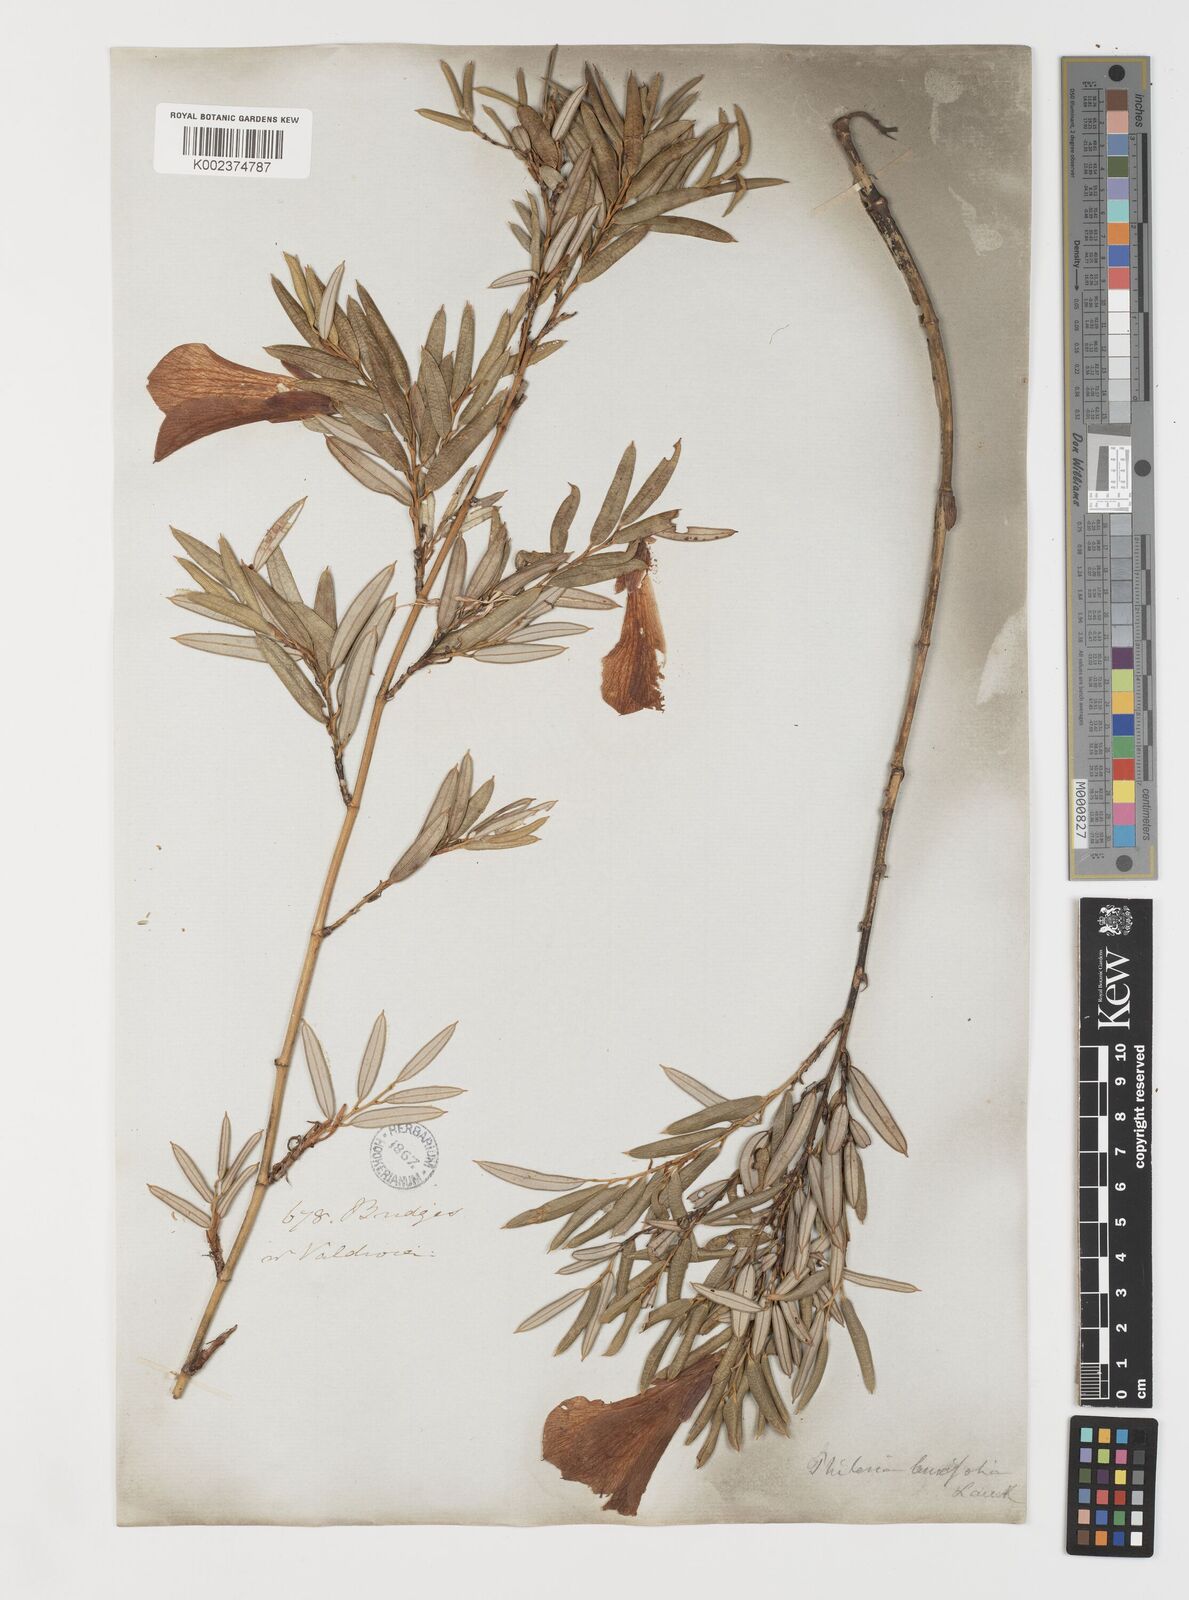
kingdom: Plantae
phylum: Tracheophyta
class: Liliopsida
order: Liliales
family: Philesiaceae
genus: Philesia
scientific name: Philesia magellanica
